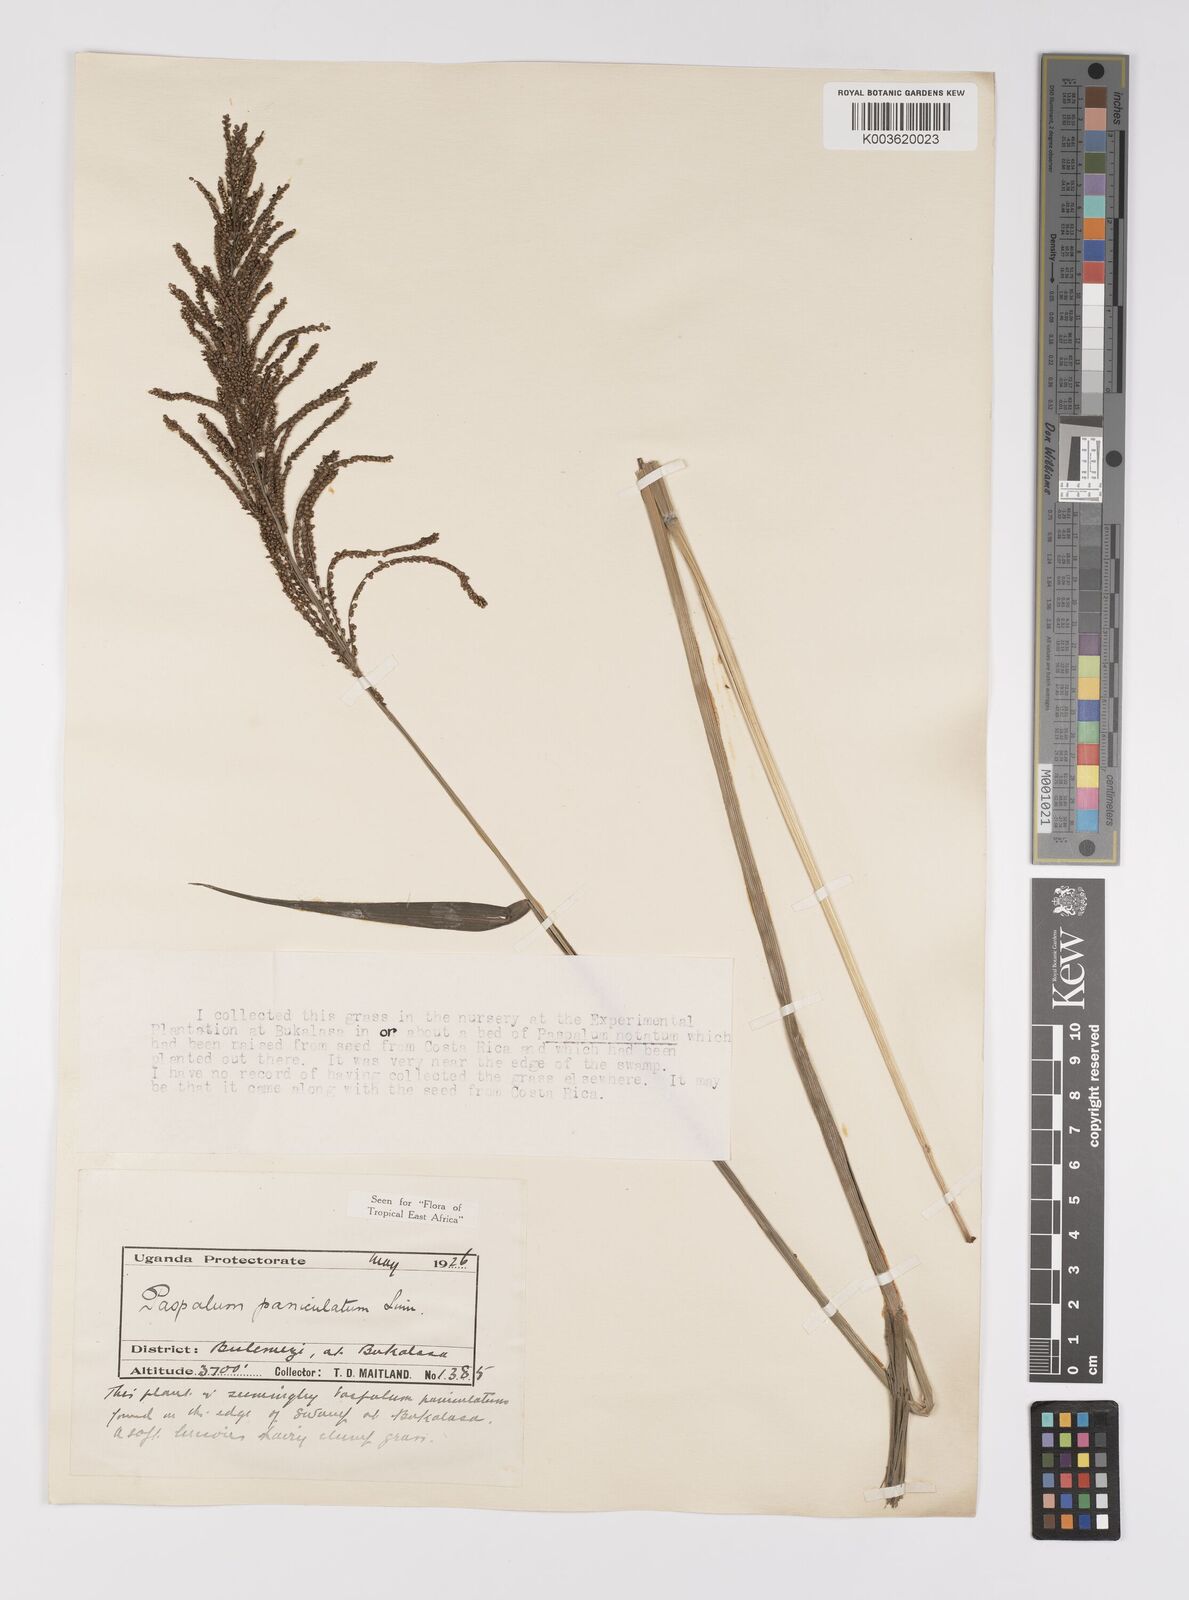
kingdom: Plantae
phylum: Tracheophyta
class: Liliopsida
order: Poales
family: Poaceae
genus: Paspalum
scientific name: Paspalum paniculatum
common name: Arrocillo
